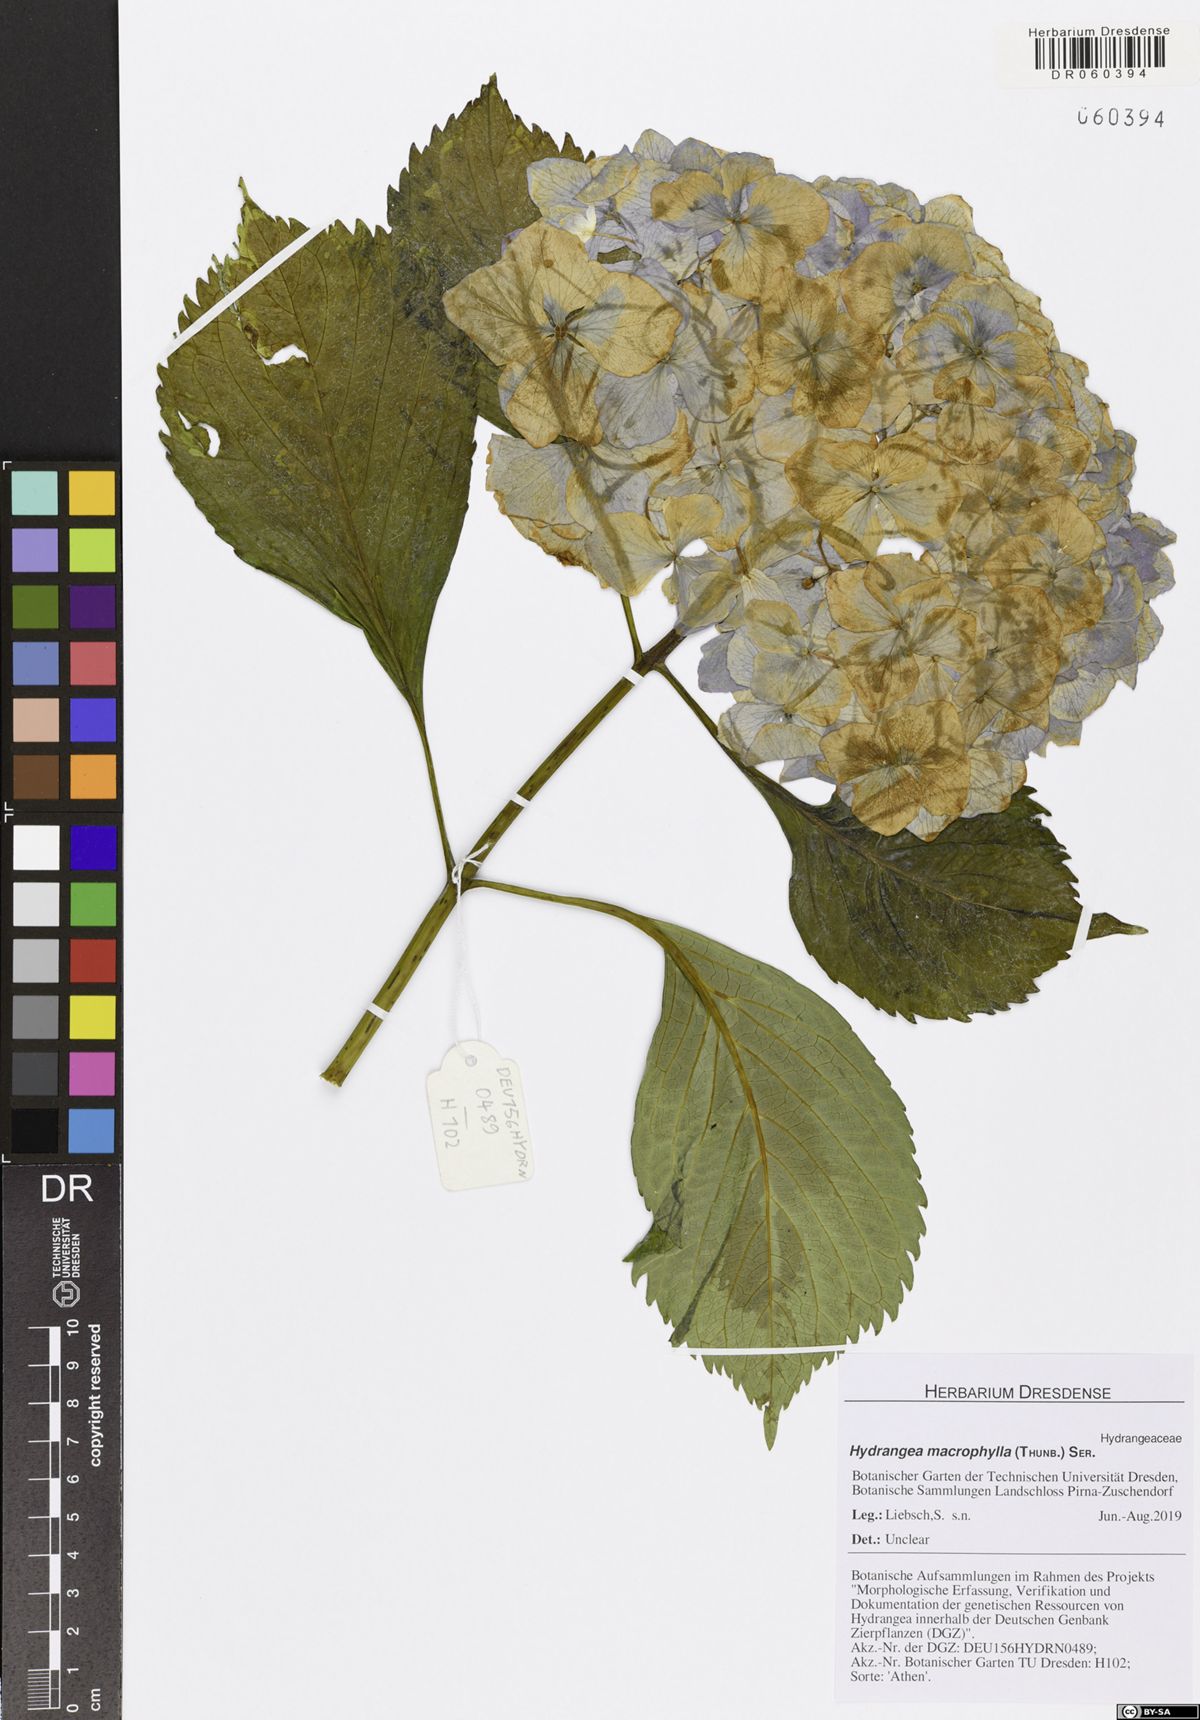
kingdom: Plantae
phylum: Tracheophyta
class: Magnoliopsida
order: Cornales
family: Hydrangeaceae
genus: Hydrangea
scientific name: Hydrangea macrophylla
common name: Hydrangea
